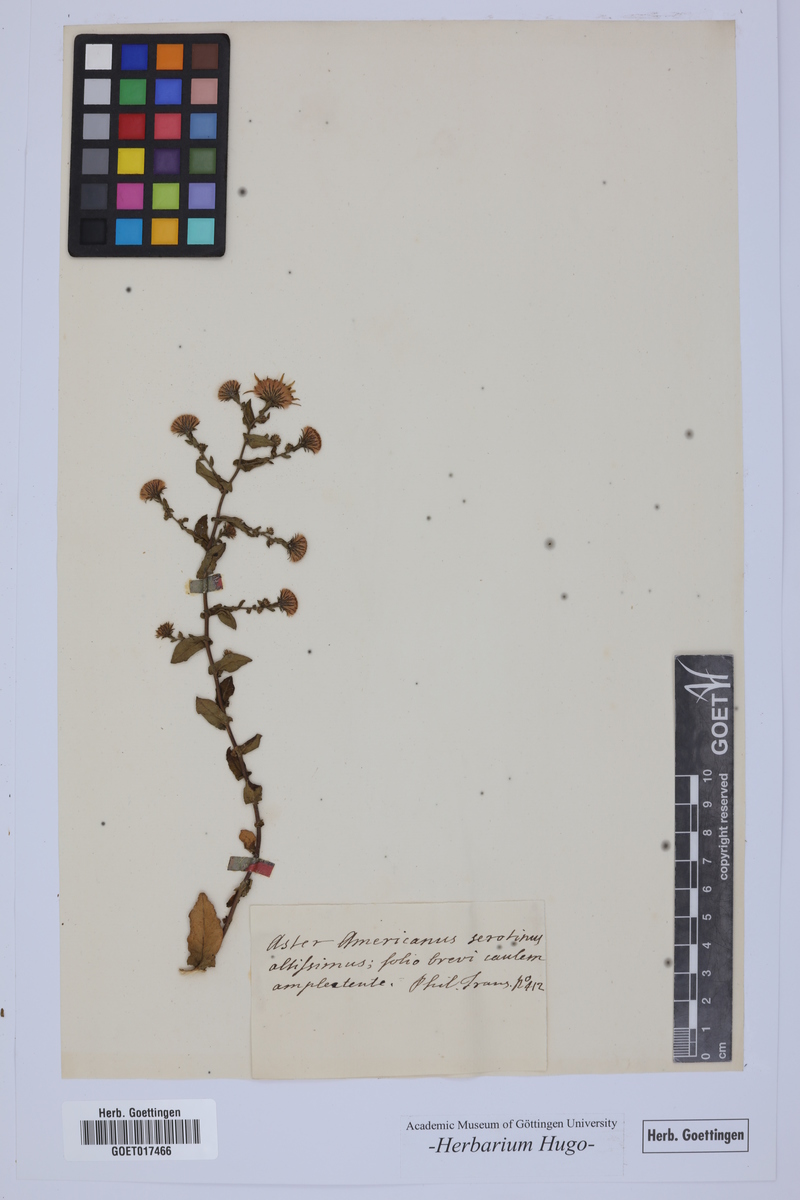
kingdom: Plantae
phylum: Tracheophyta
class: Magnoliopsida
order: Asterales
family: Asteraceae
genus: Aster
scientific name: Aster
